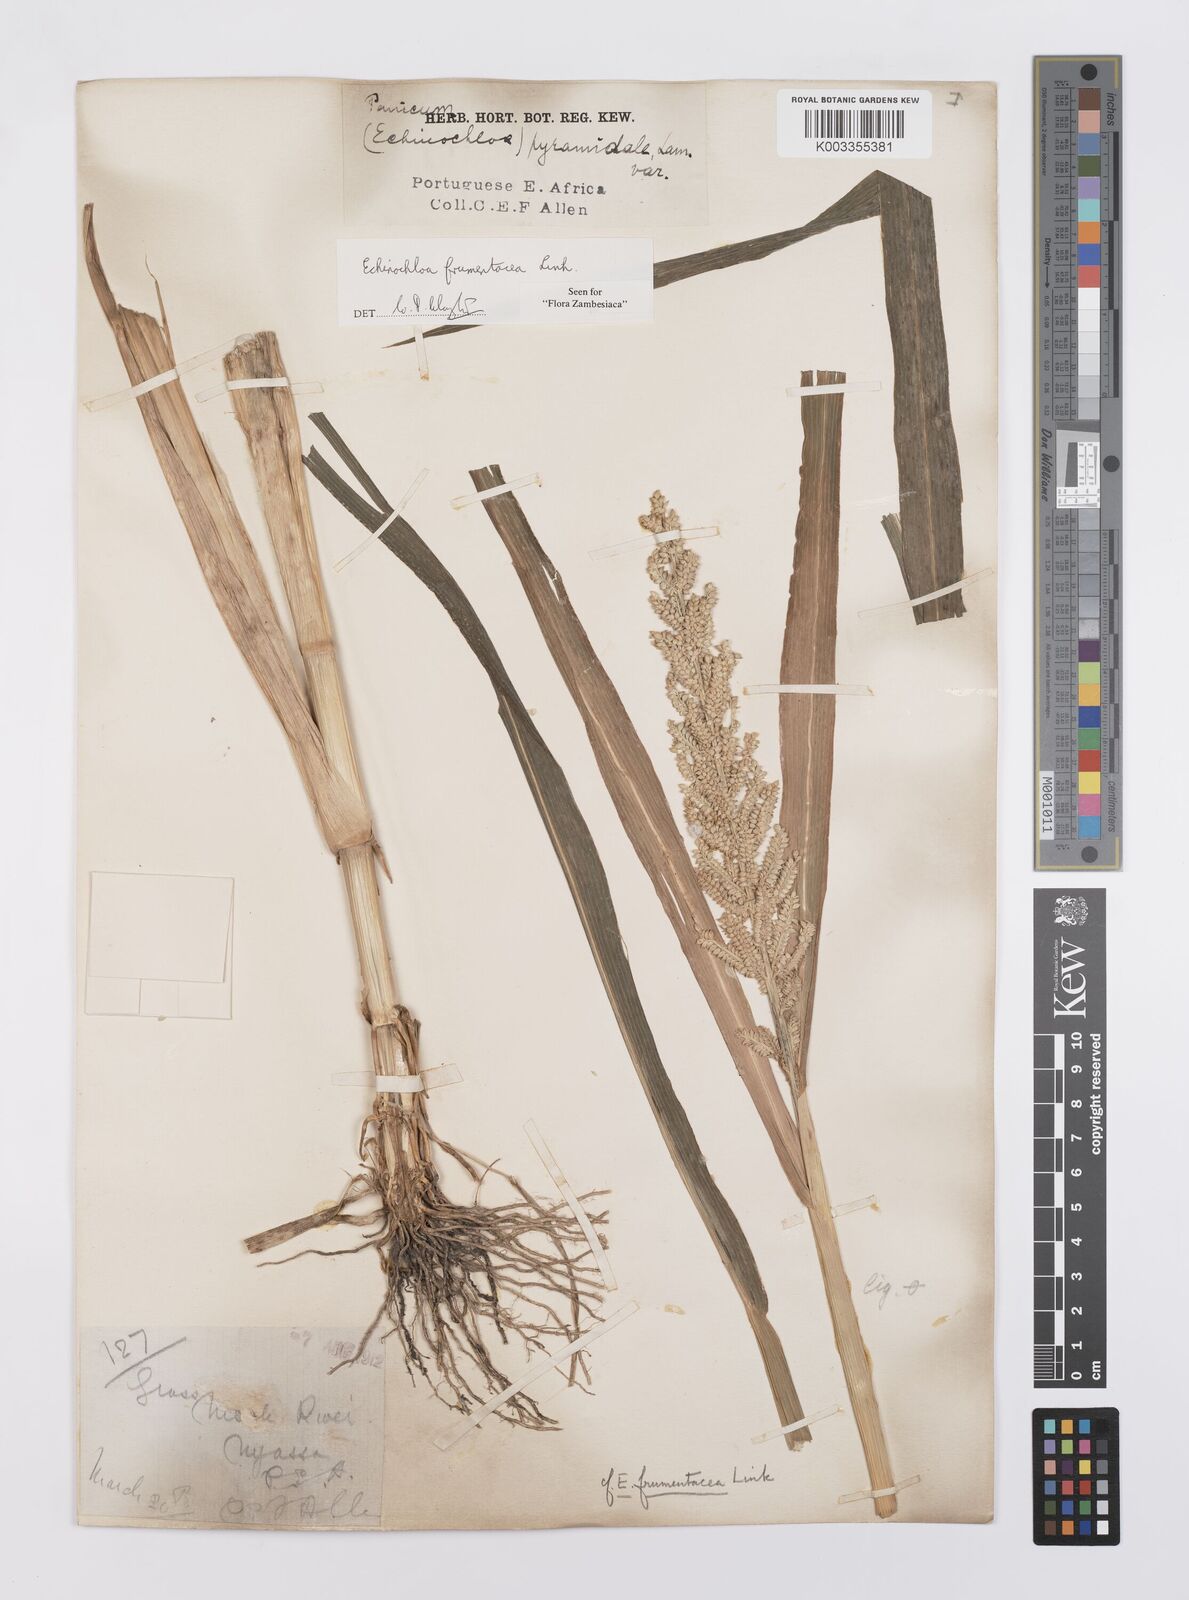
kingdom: Plantae
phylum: Tracheophyta
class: Liliopsida
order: Poales
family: Poaceae
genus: Echinochloa
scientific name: Echinochloa frumentacea
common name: Billion-dollar grass
